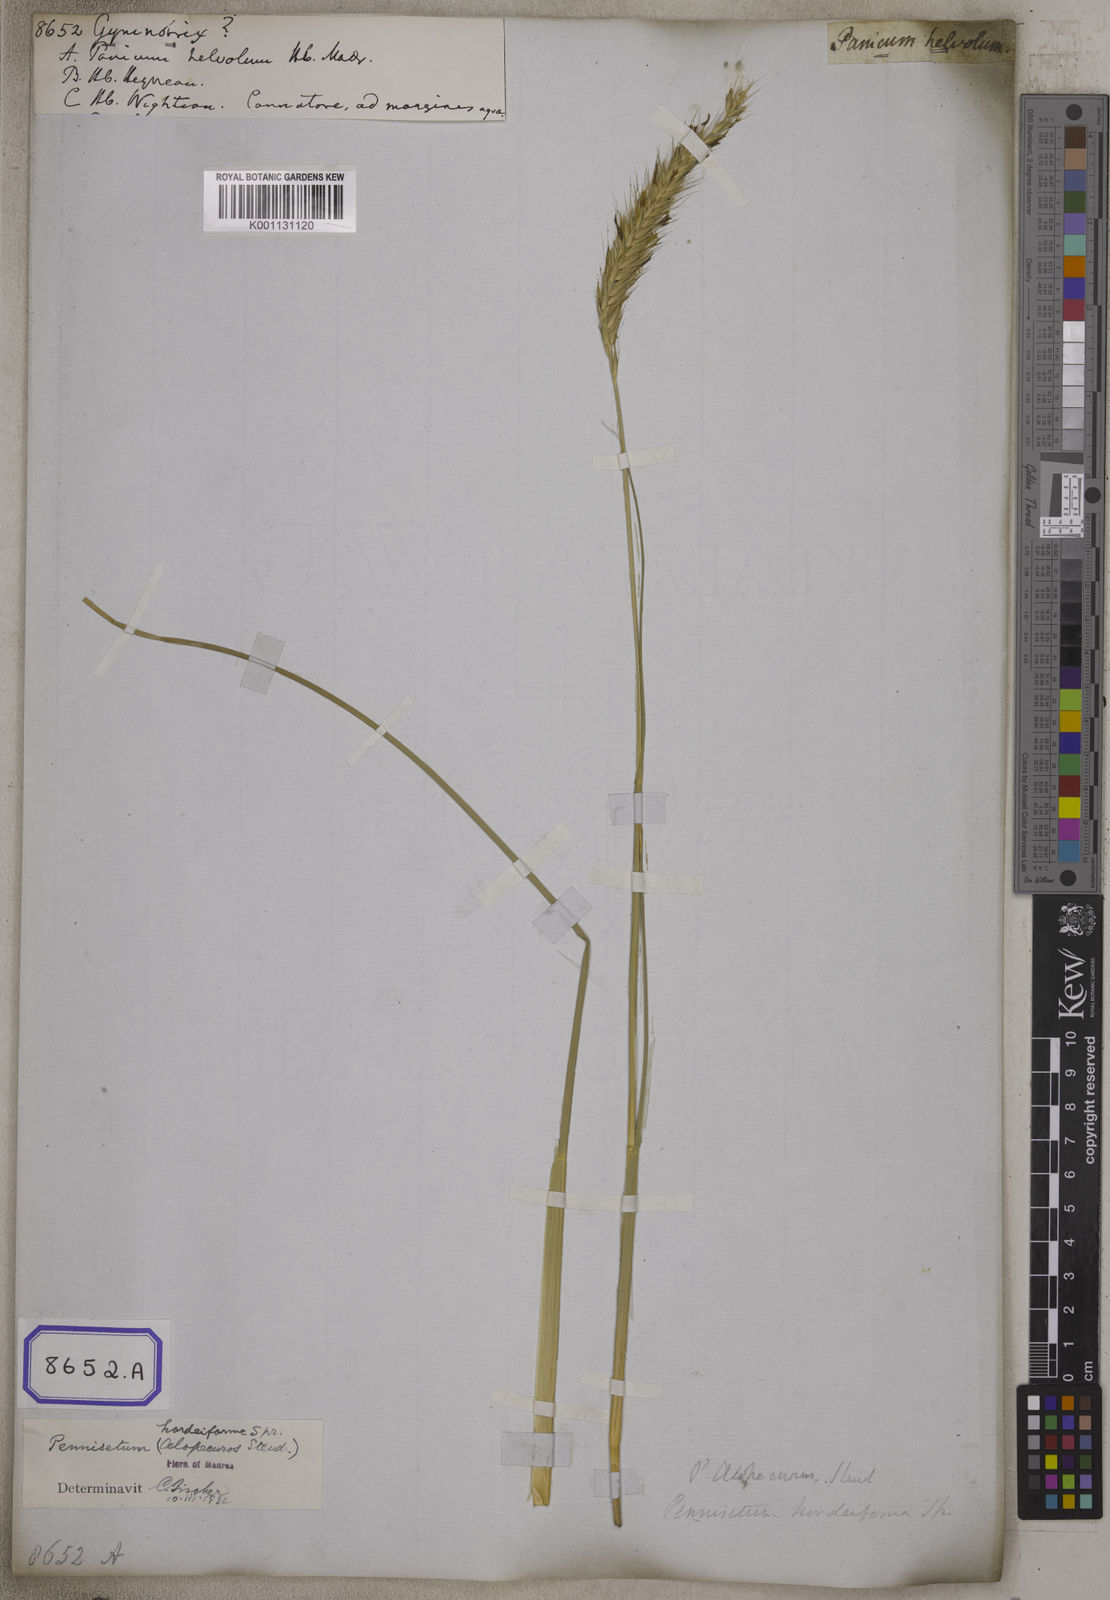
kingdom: Plantae
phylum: Tracheophyta
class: Liliopsida
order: Poales
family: Poaceae
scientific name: Poaceae
